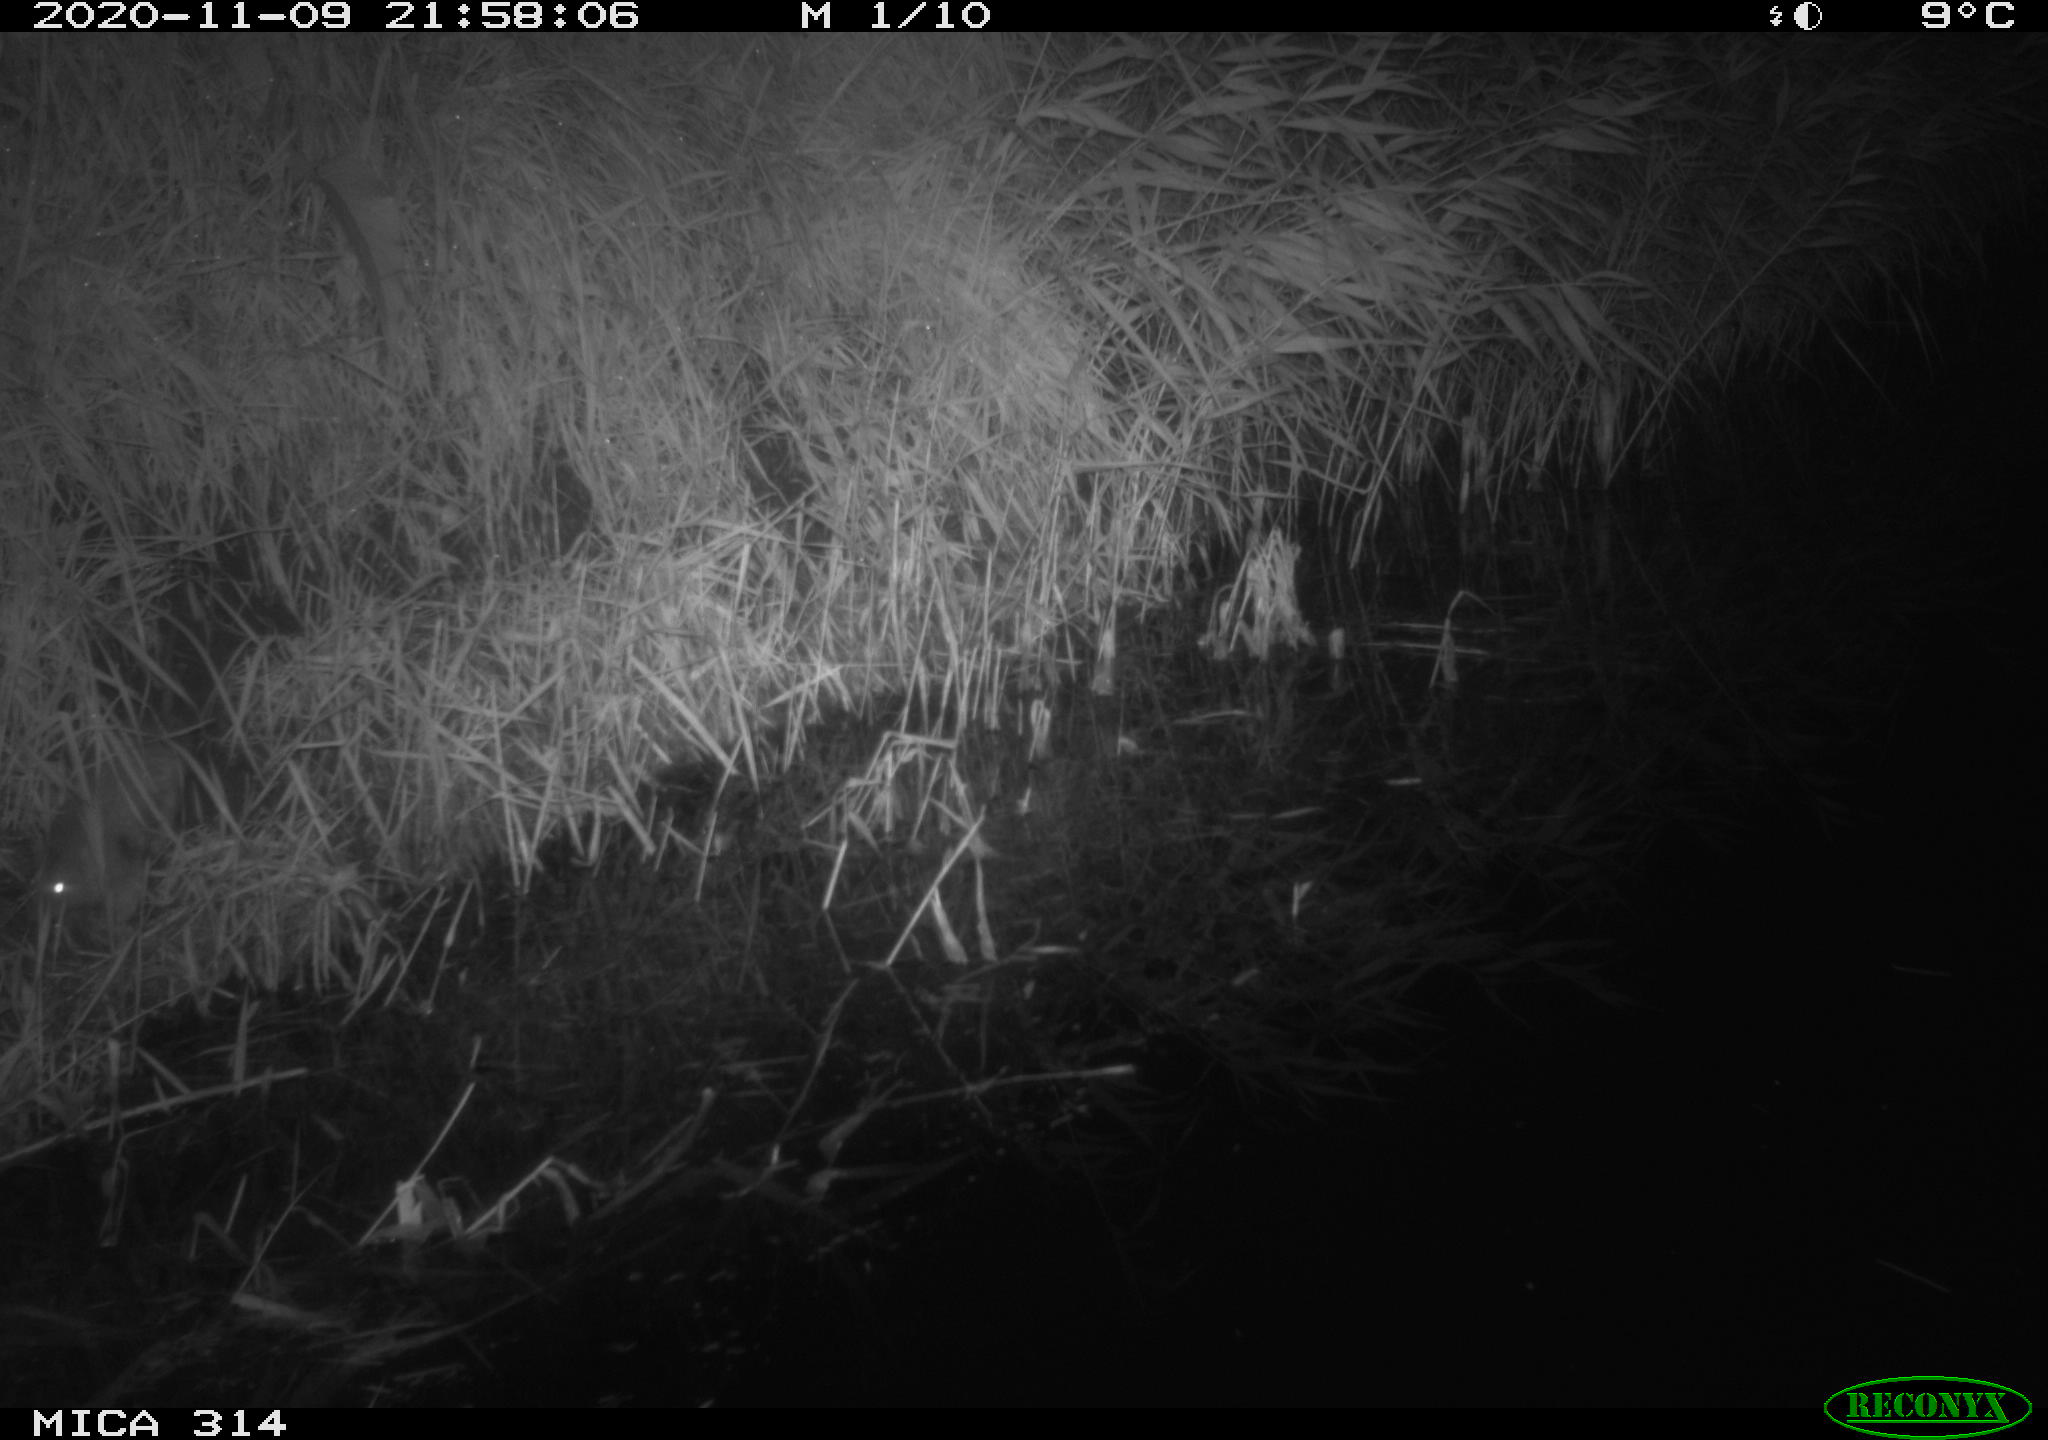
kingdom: Animalia
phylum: Chordata
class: Mammalia
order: Rodentia
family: Muridae
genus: Rattus
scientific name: Rattus norvegicus
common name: Brown rat
